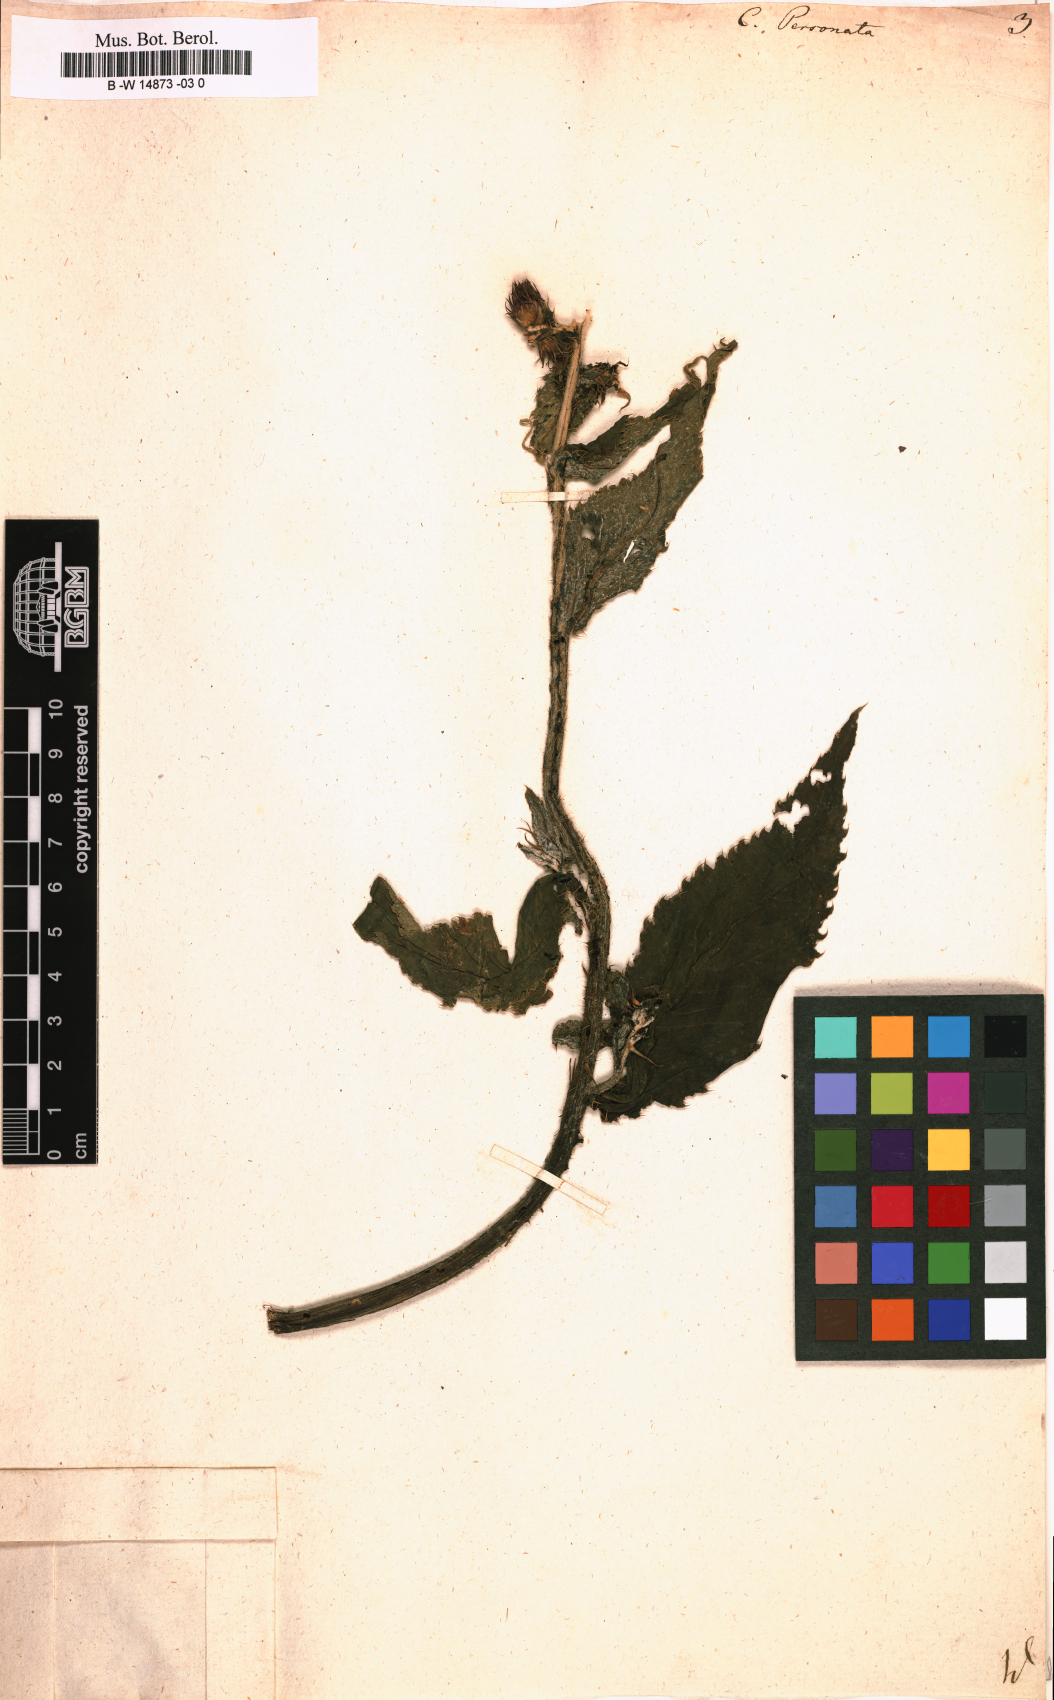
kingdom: Plantae
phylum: Tracheophyta
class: Magnoliopsida
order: Asterales
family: Asteraceae
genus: Carduus
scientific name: Carduus personata
